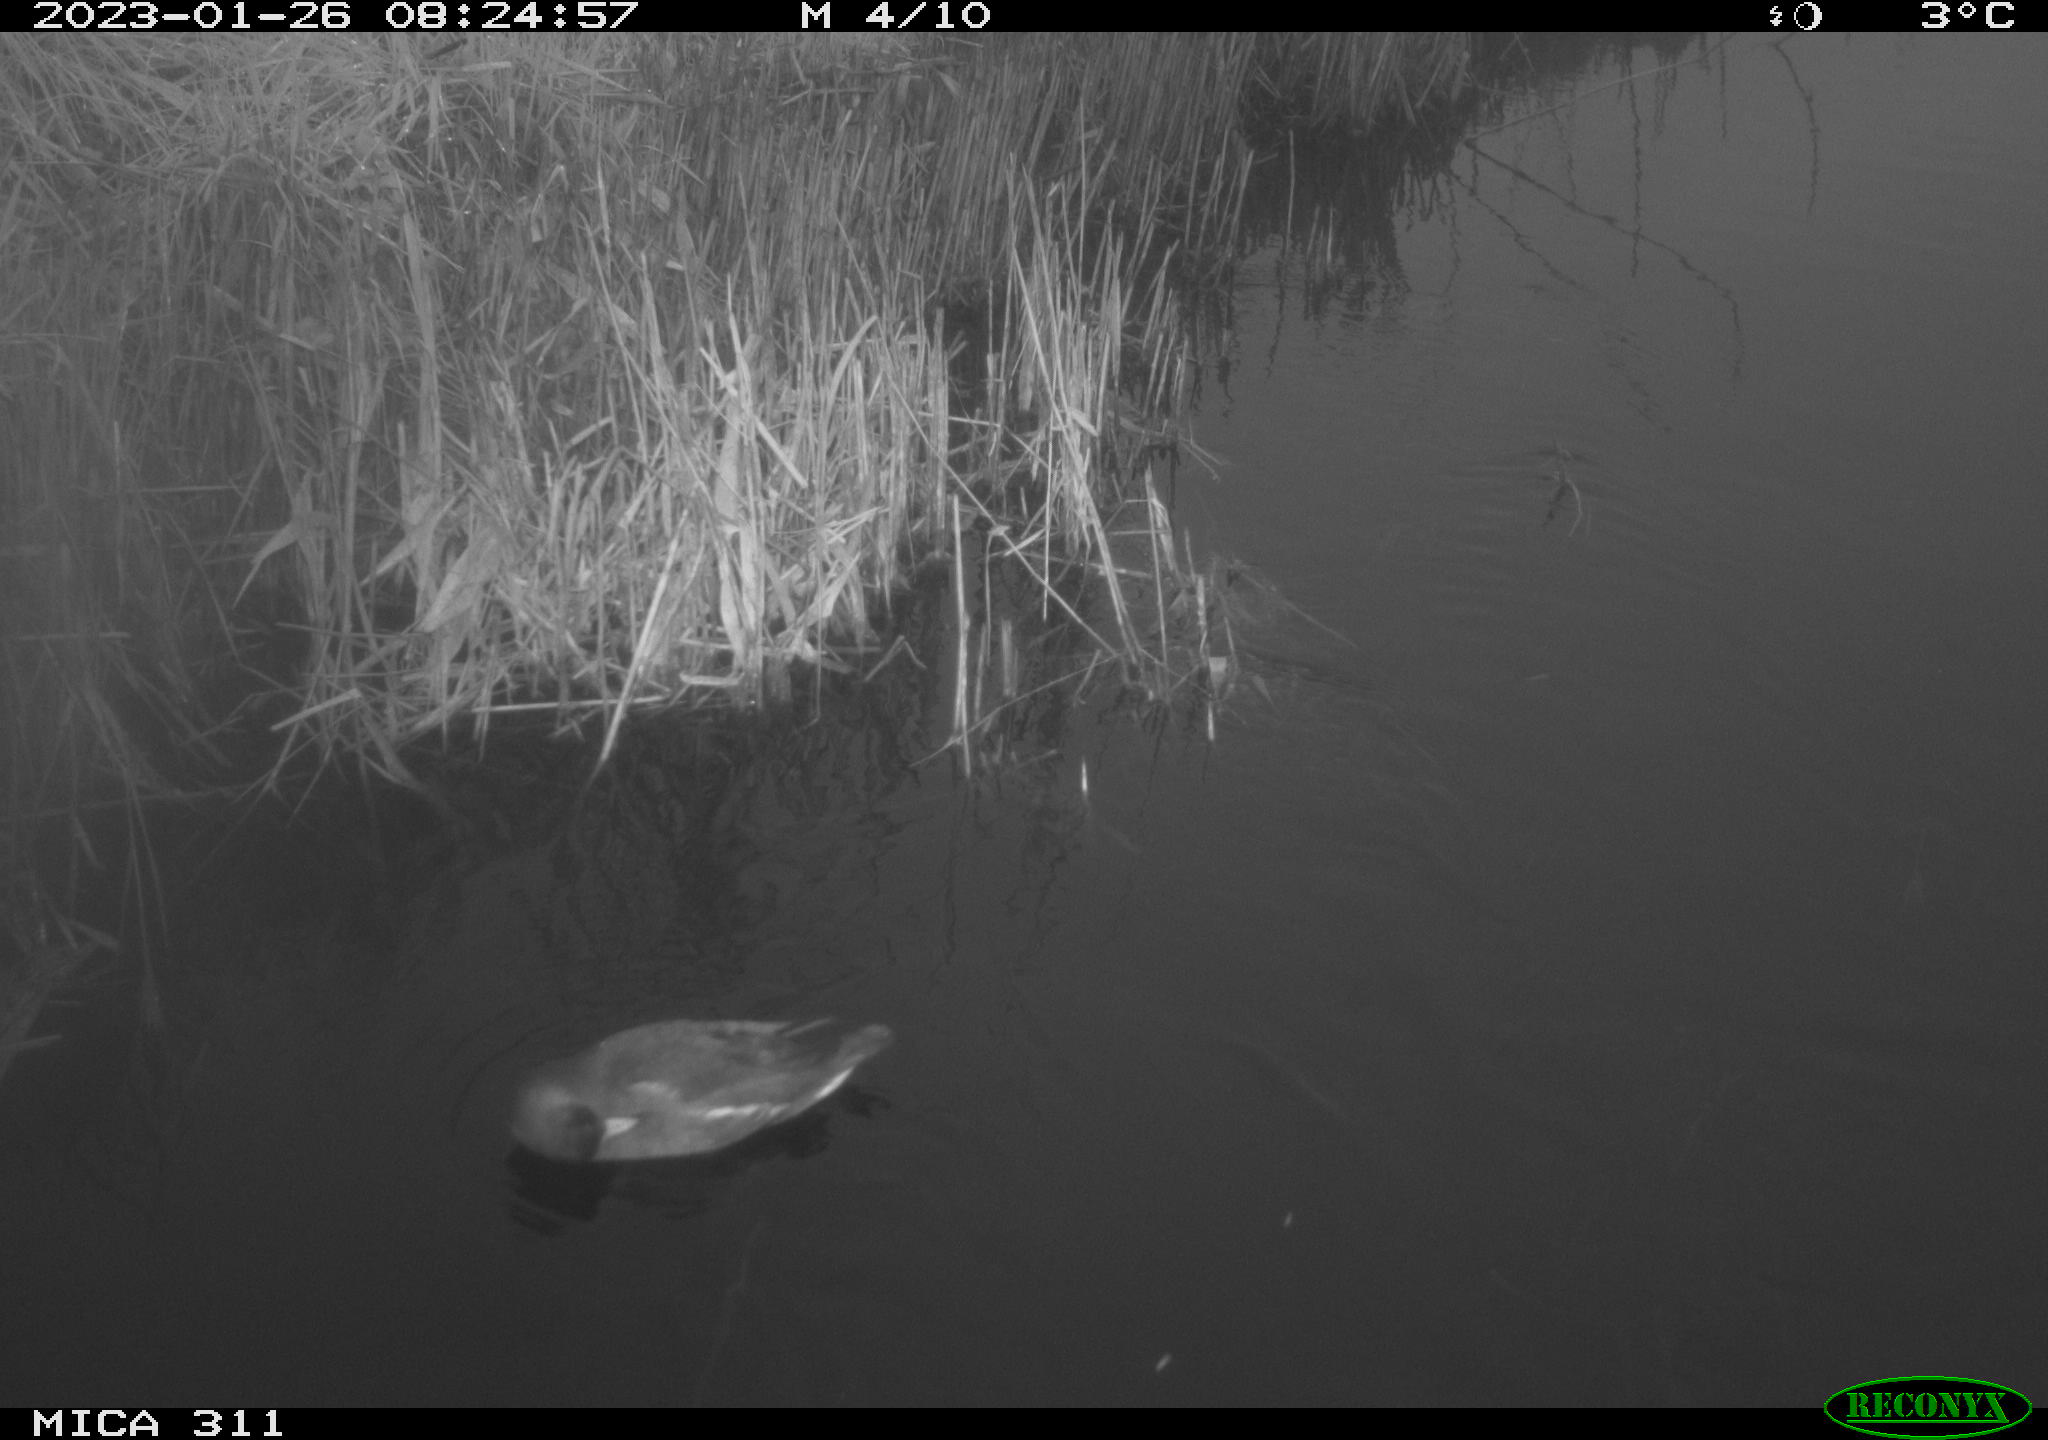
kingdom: Animalia
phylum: Chordata
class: Aves
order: Gruiformes
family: Rallidae
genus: Gallinula
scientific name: Gallinula chloropus
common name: Common moorhen
